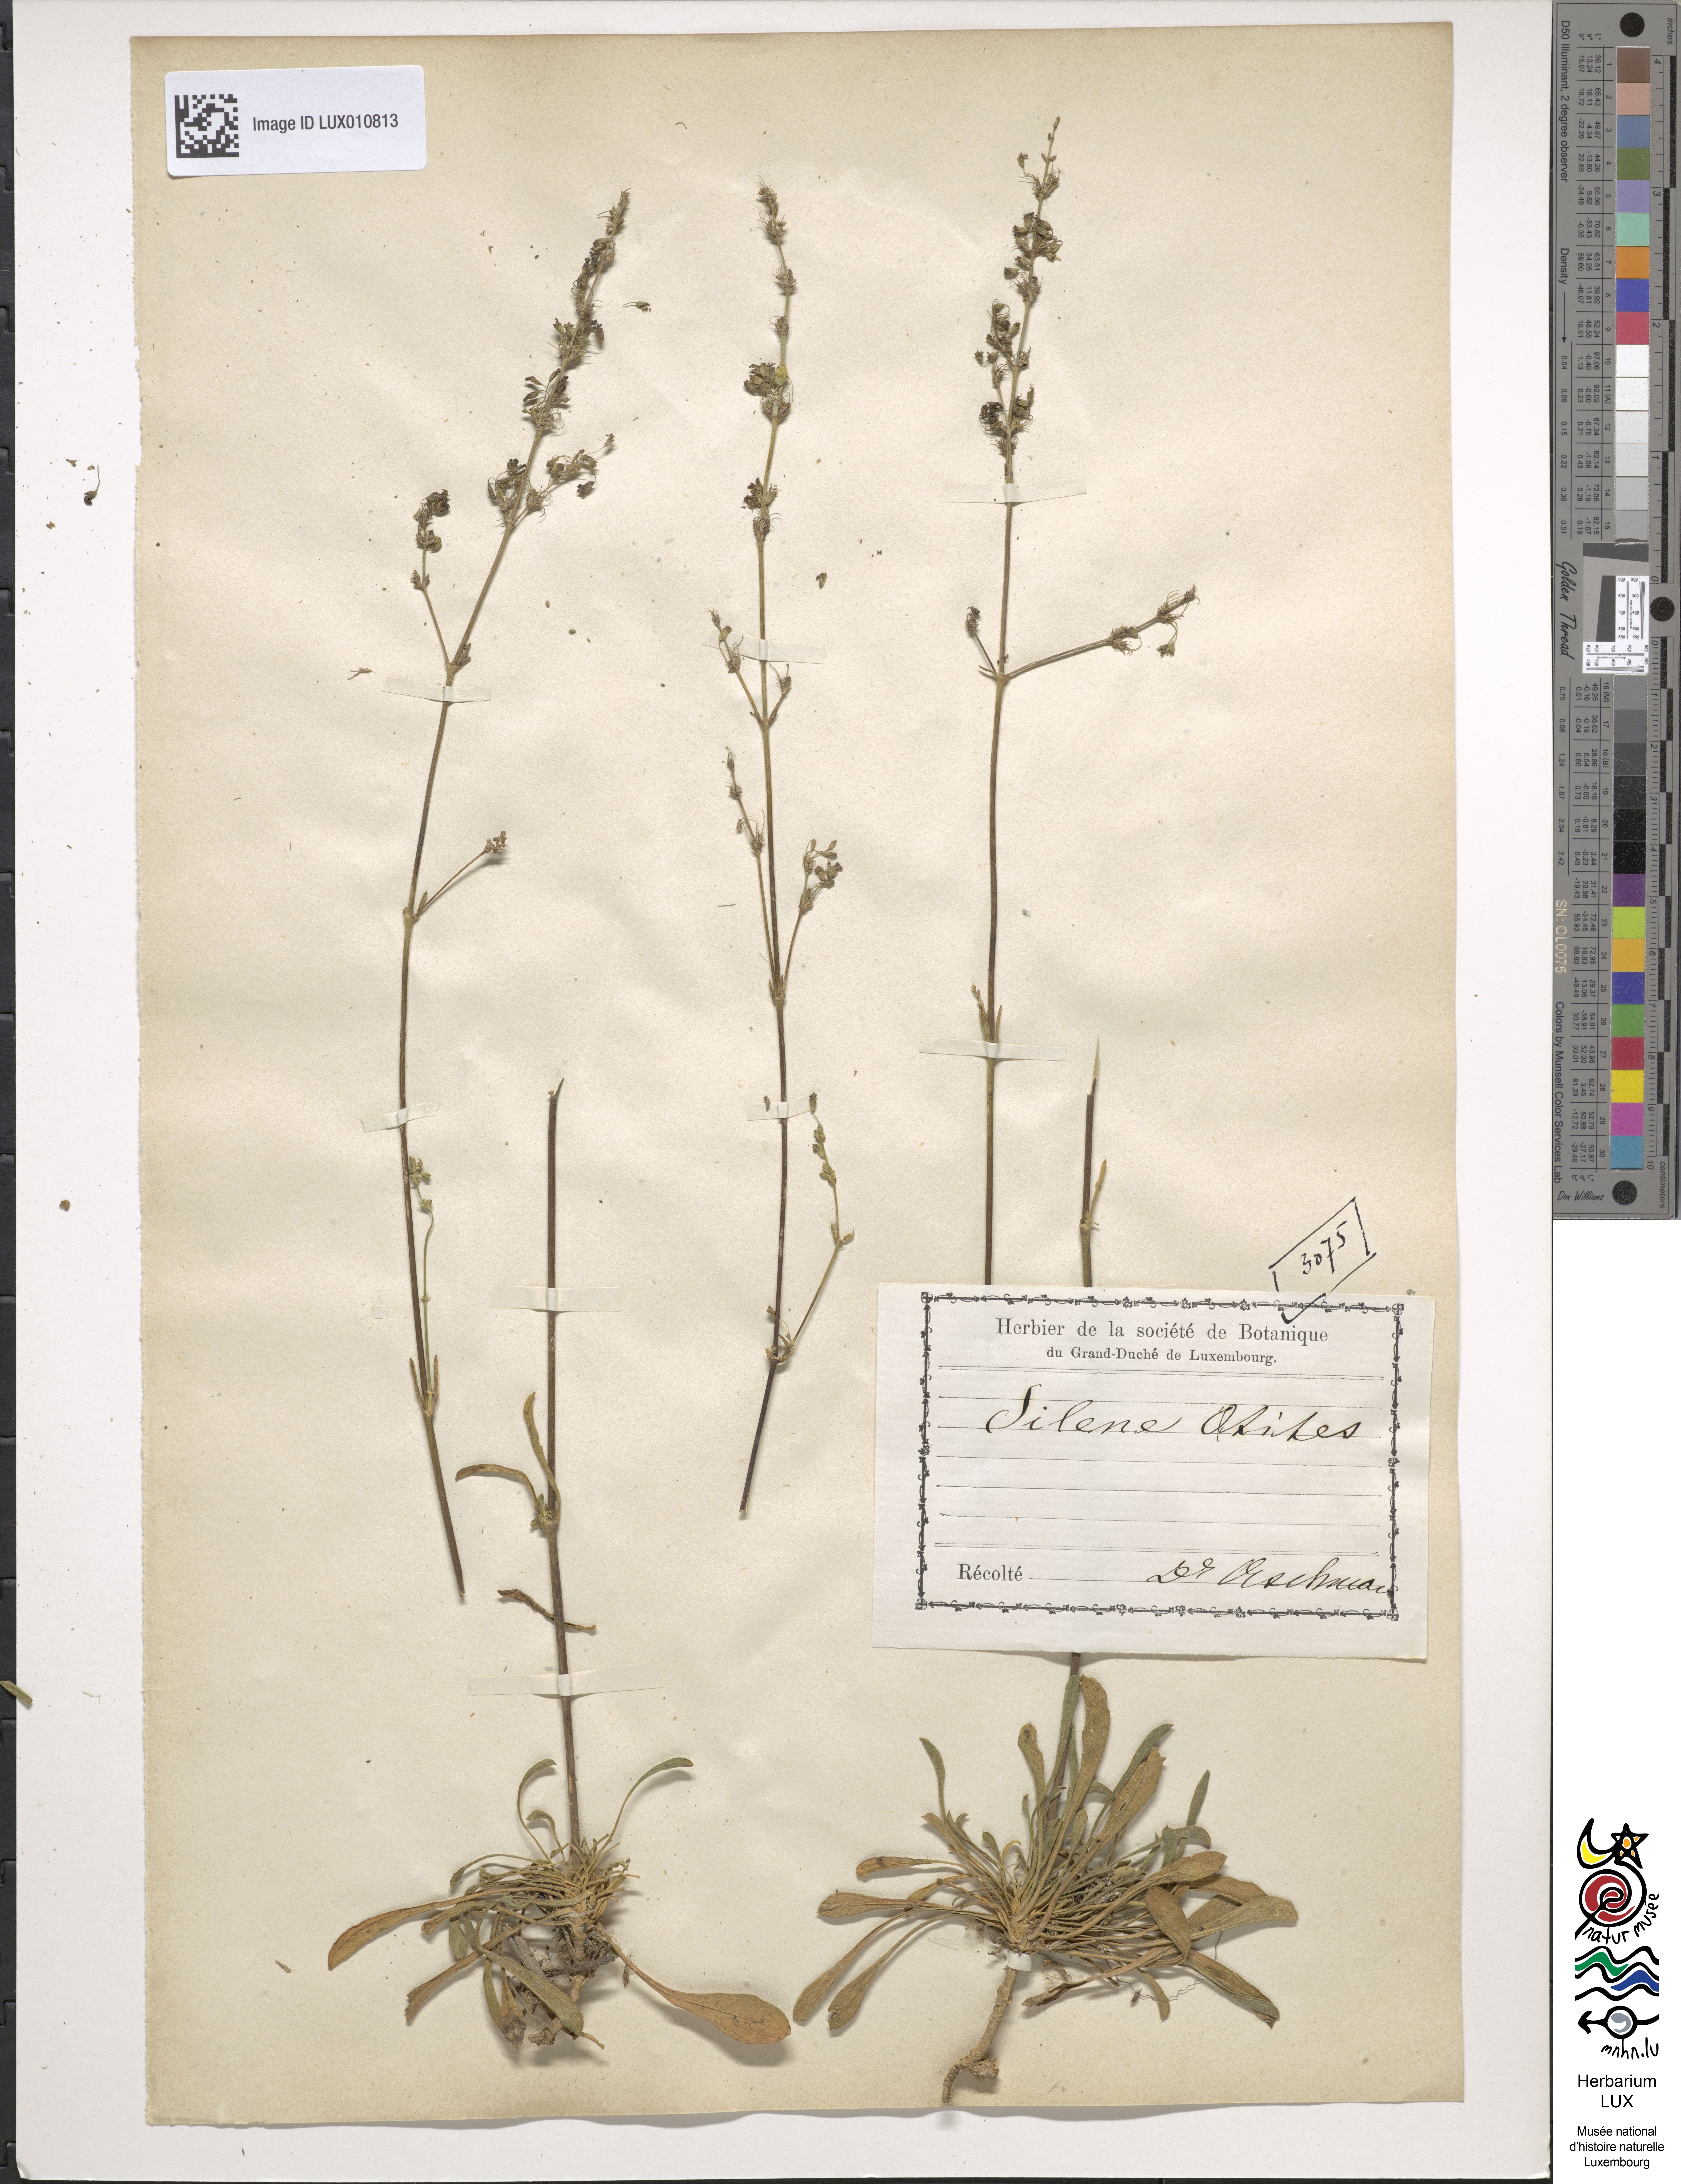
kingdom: Plantae
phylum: Tracheophyta
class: Magnoliopsida
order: Caryophyllales
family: Caryophyllaceae
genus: Silene
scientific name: Silene otites
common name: Spanish catchfly
